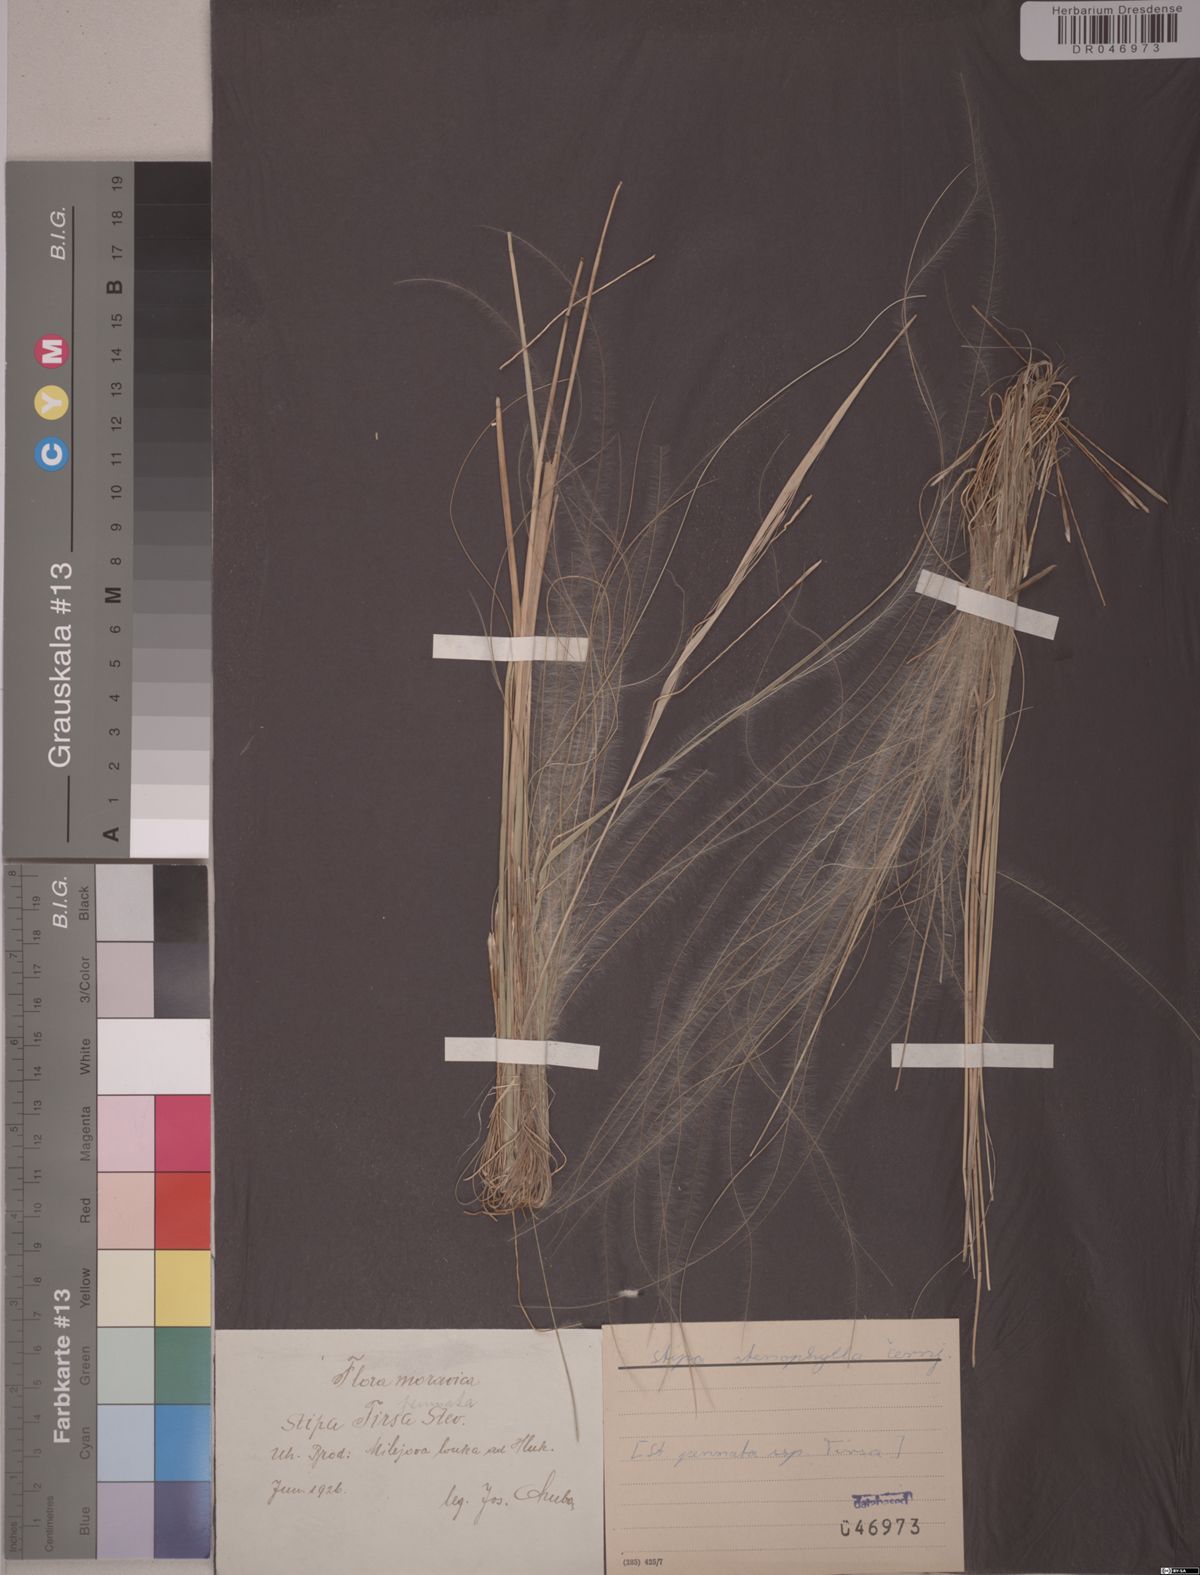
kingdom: Plantae
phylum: Tracheophyta
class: Liliopsida
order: Poales
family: Poaceae
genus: Stipa
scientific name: Stipa tirsa
